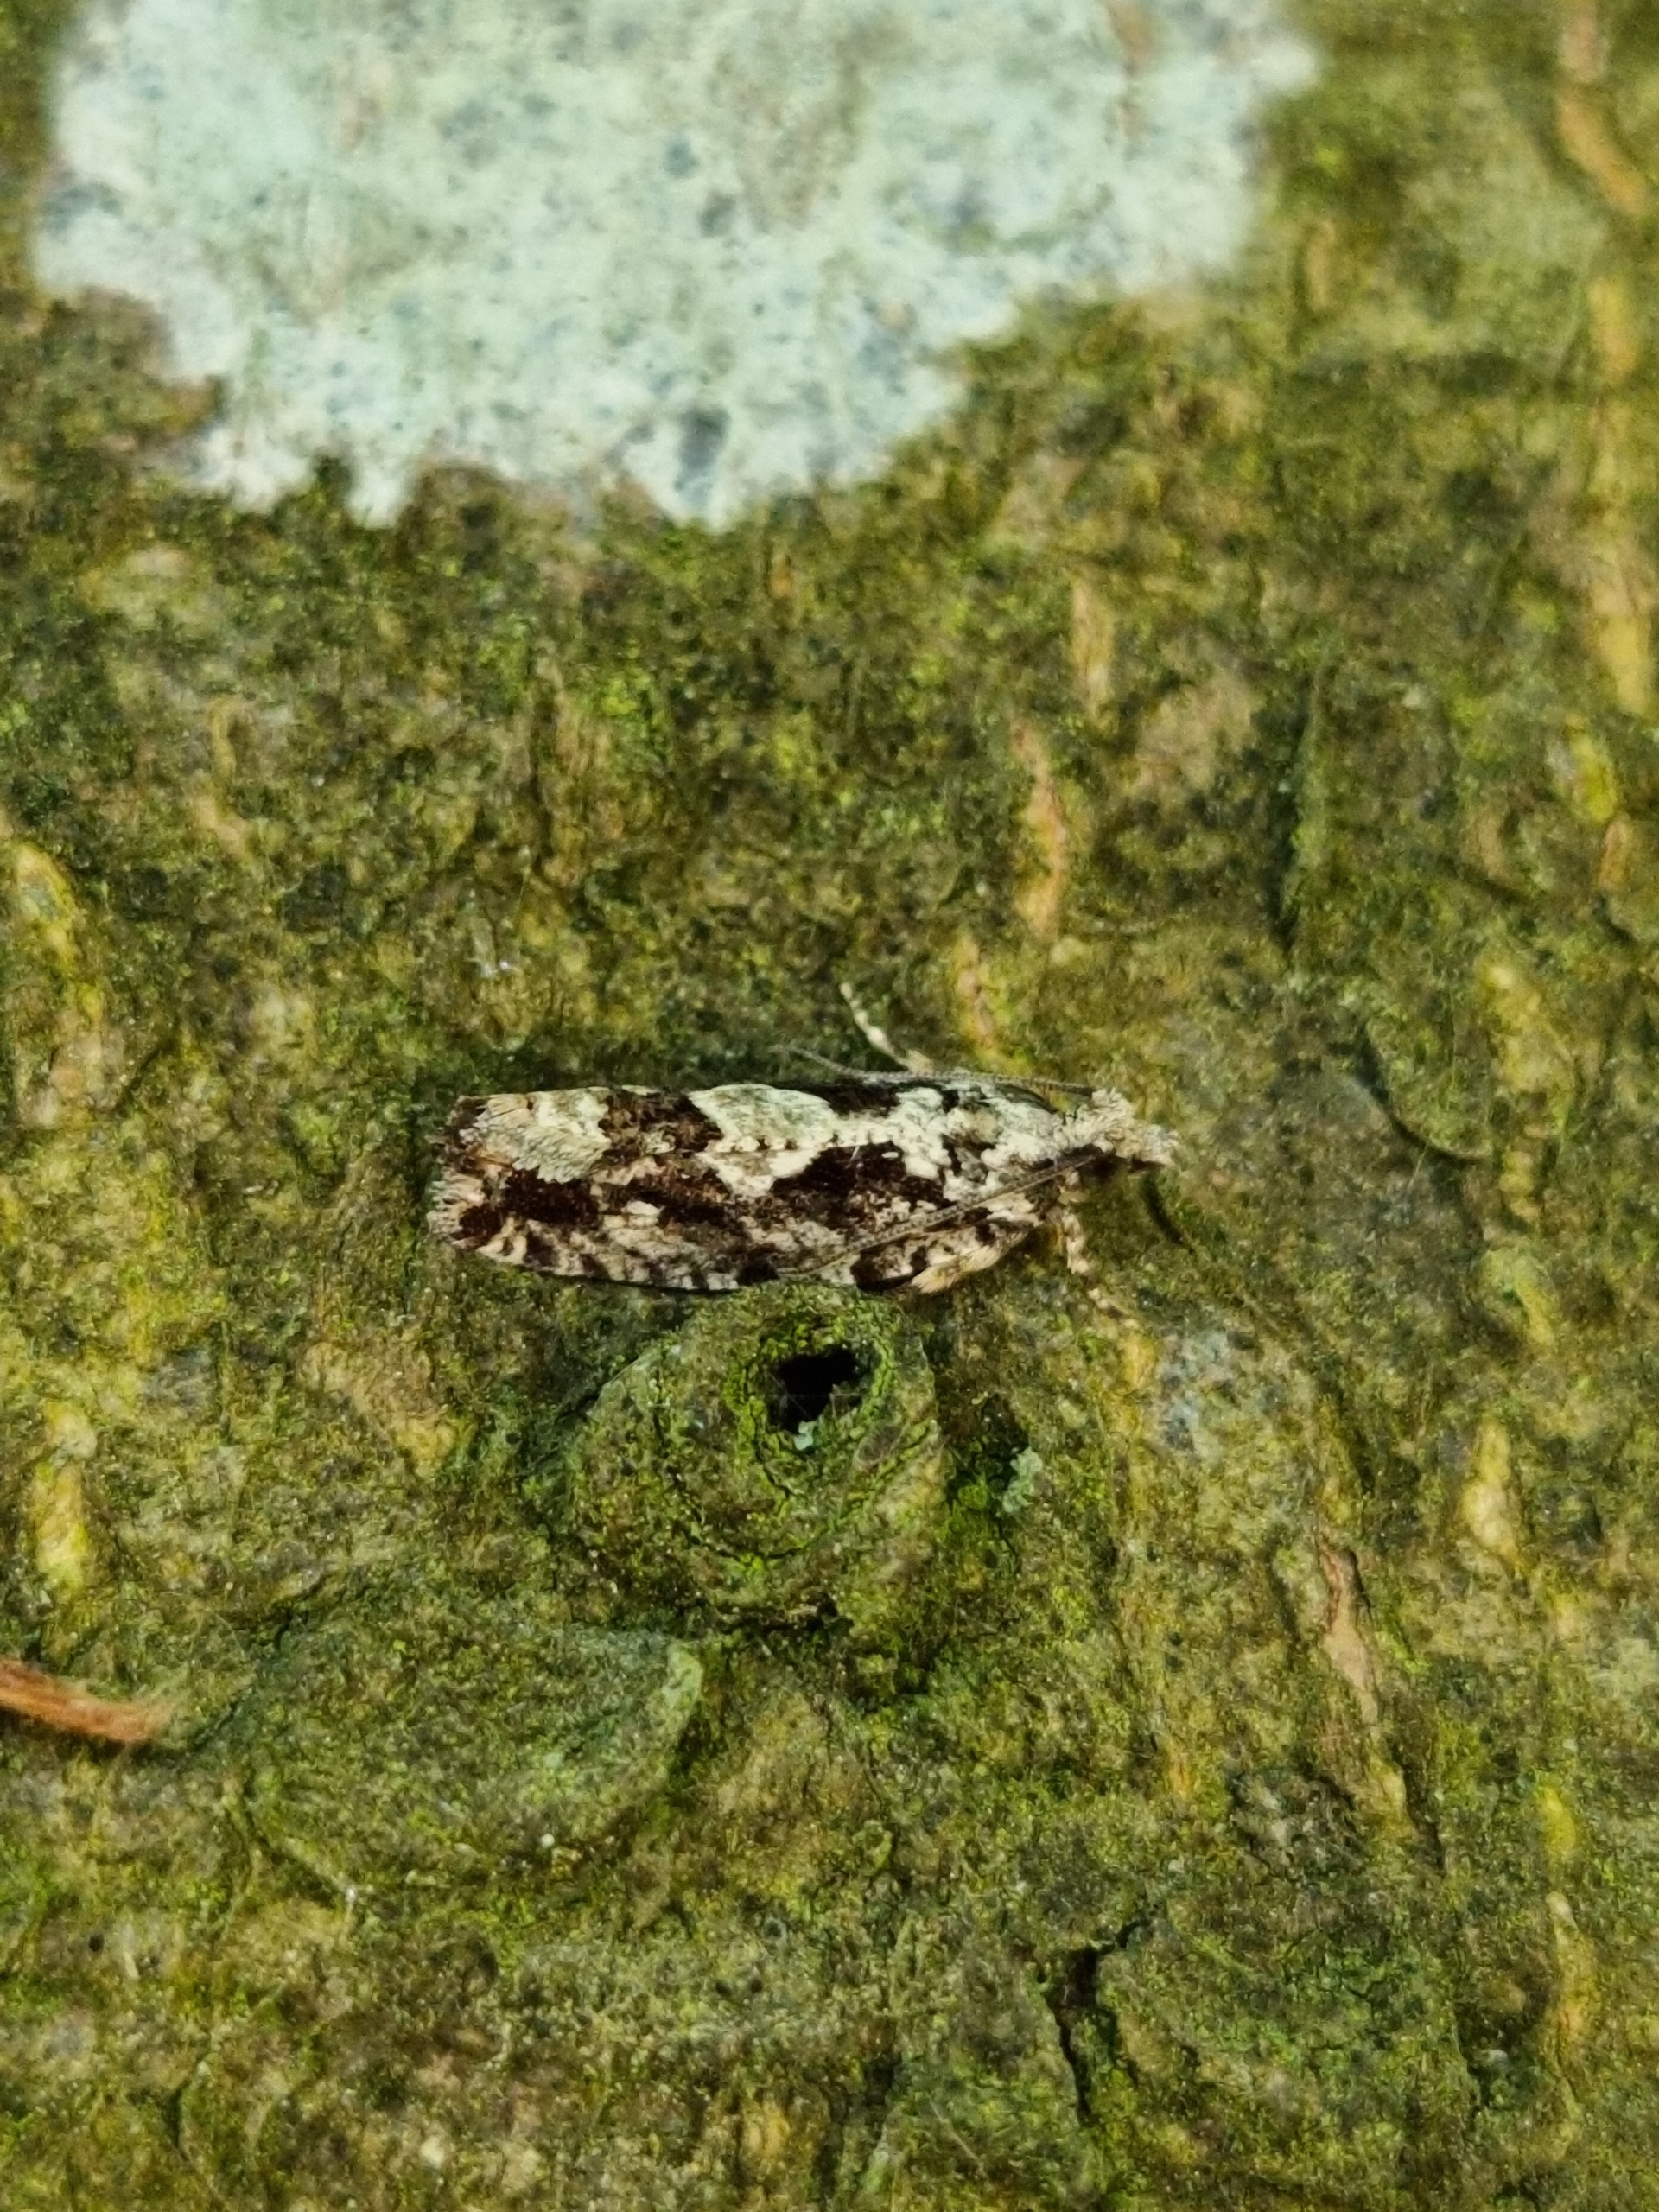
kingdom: Animalia
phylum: Arthropoda
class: Insecta
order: Lepidoptera
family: Tortricidae
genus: Zeiraphera
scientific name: Zeiraphera isertana
